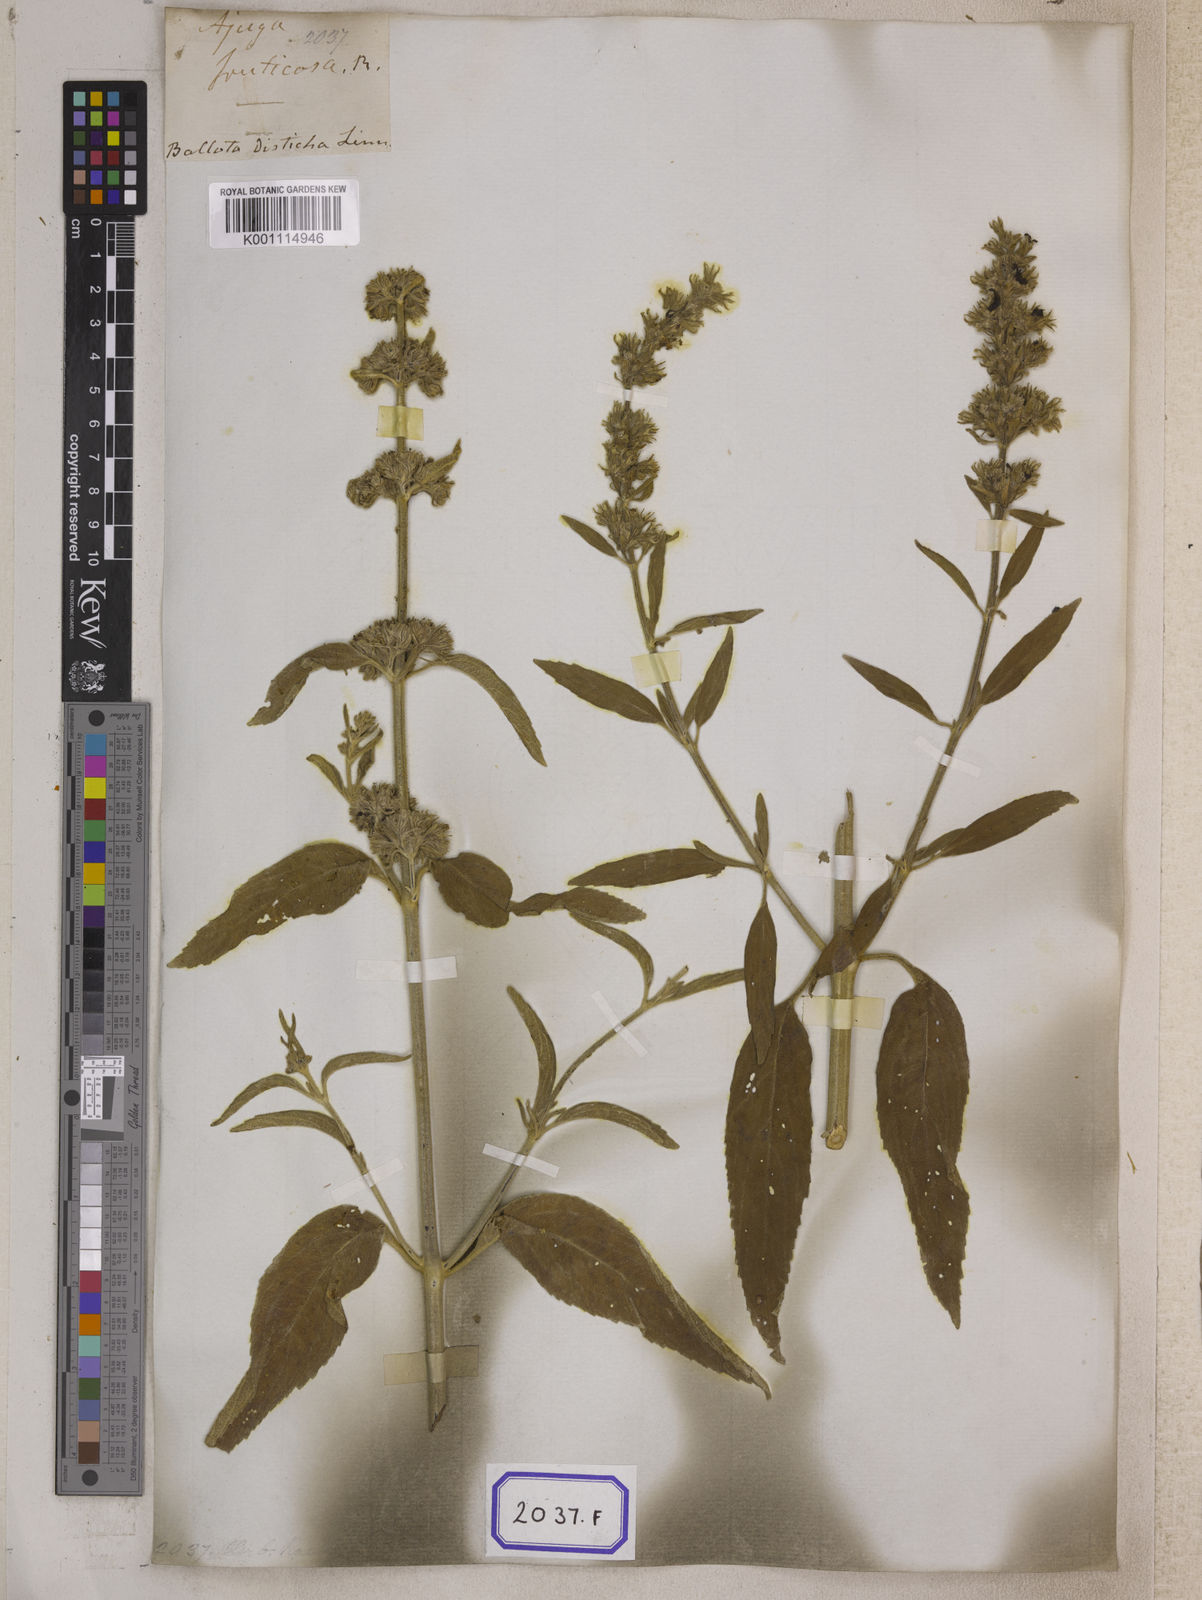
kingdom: Plantae
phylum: Tracheophyta
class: Magnoliopsida
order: Lamiales
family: Lamiaceae
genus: Anisomeles
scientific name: Anisomeles malabarica
